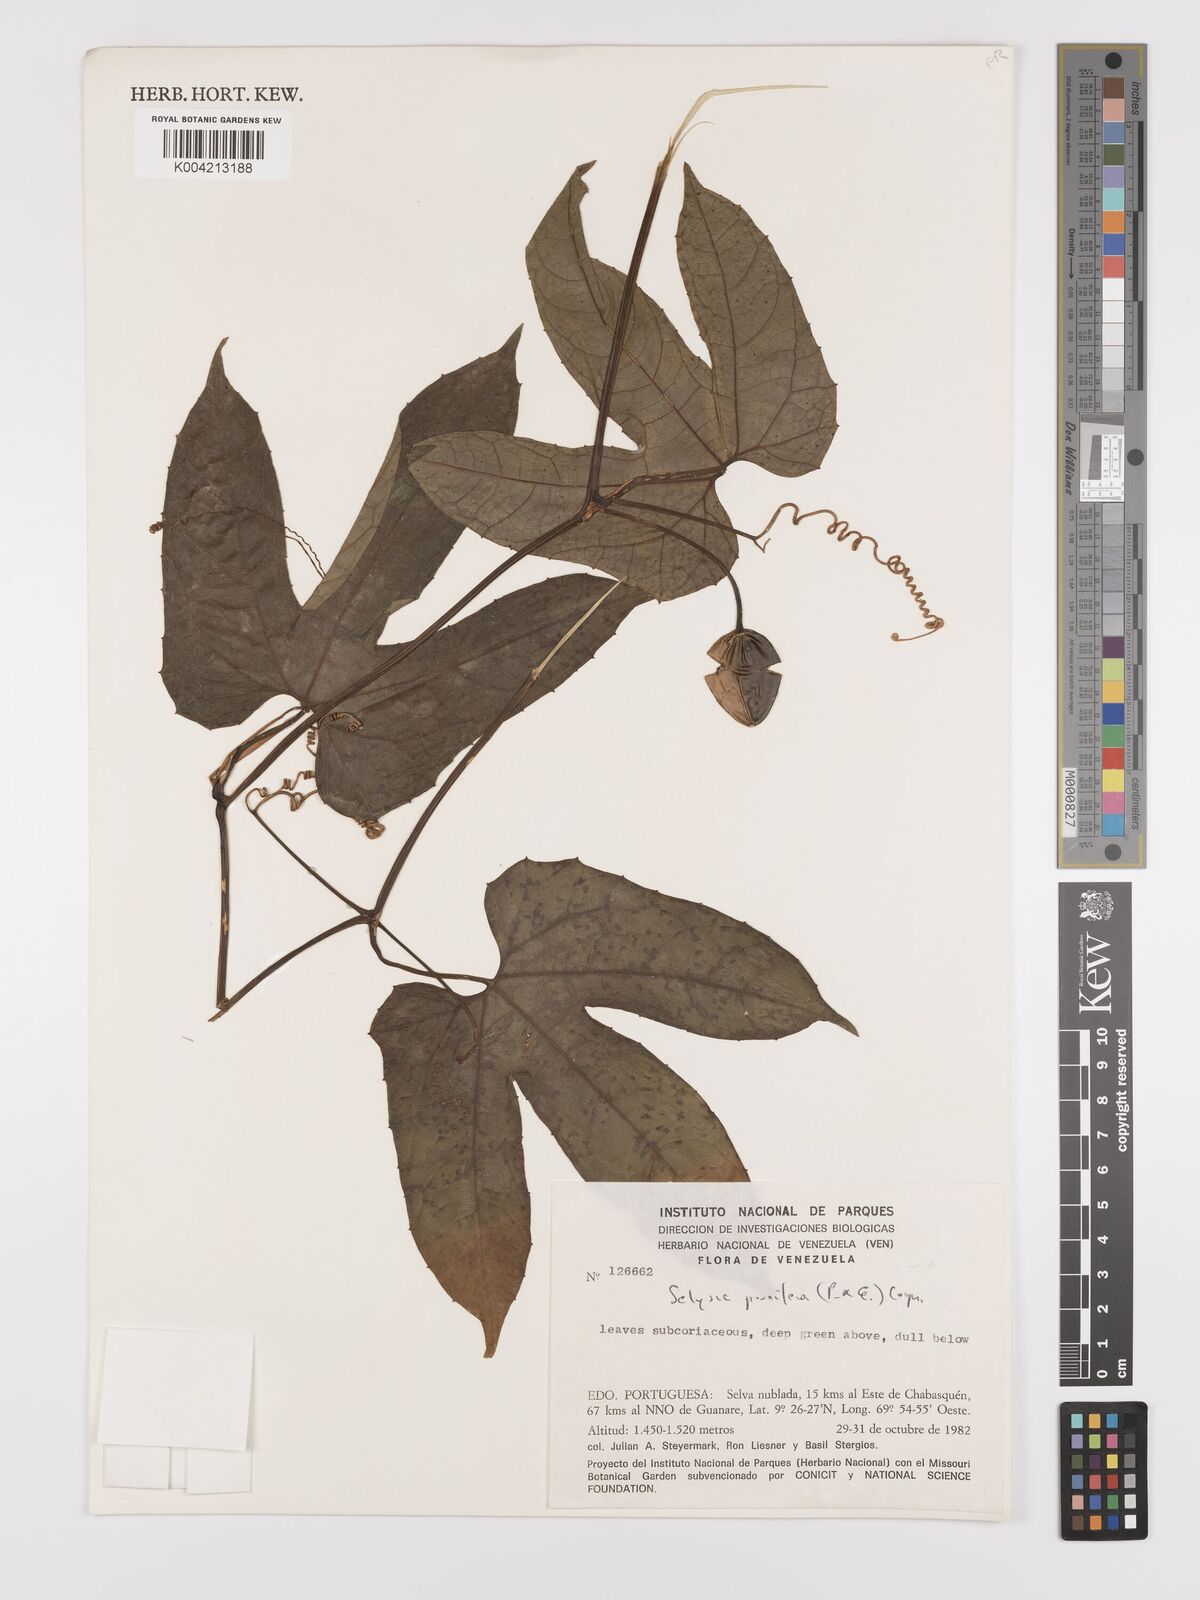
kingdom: Plantae
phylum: Tracheophyta
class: Magnoliopsida
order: Cucurbitales
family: Cucurbitaceae
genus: Cayaponia
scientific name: Cayaponia prunifera
